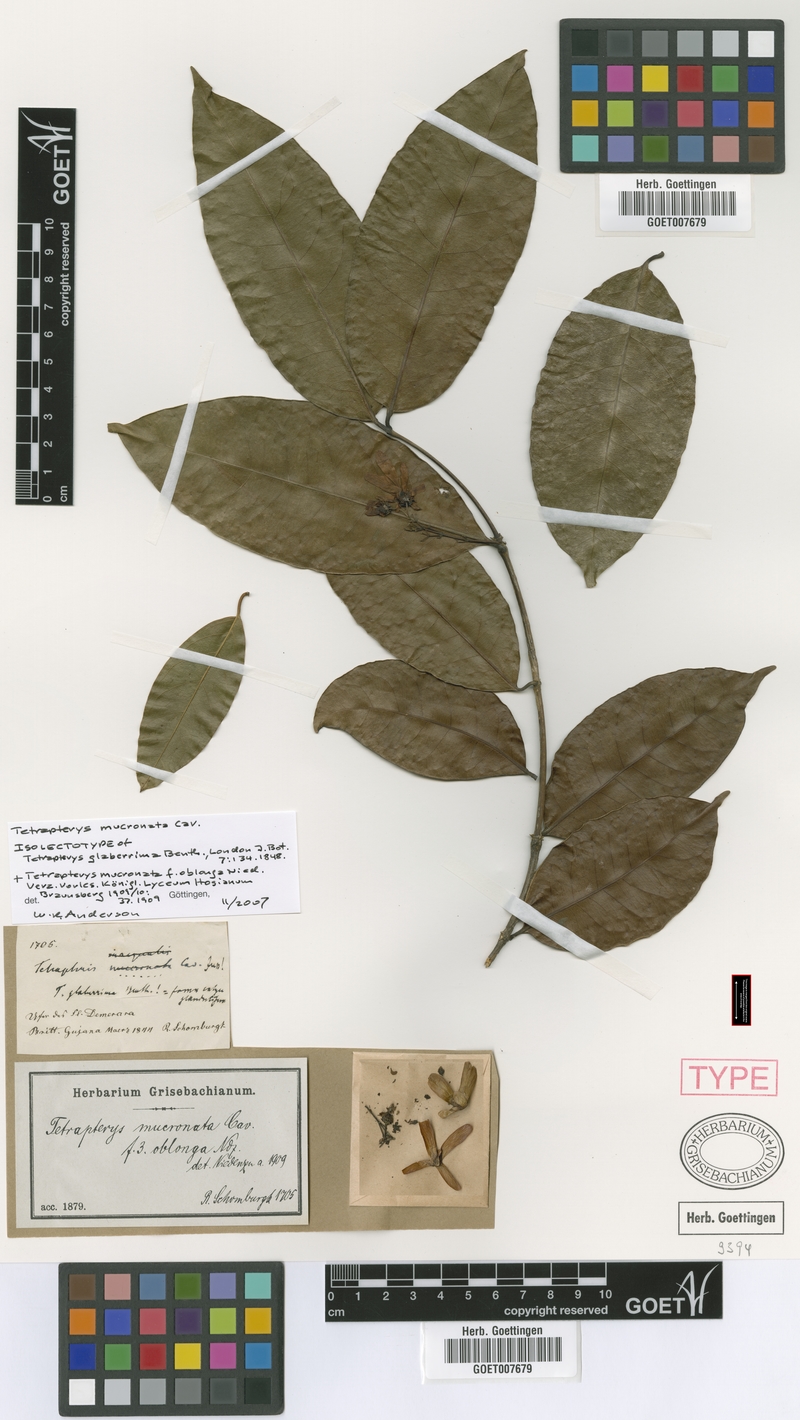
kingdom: Plantae
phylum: Tracheophyta
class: Magnoliopsida
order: Malpighiales
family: Malpighiaceae
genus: Tetrapterys
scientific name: Tetrapterys mucronata
